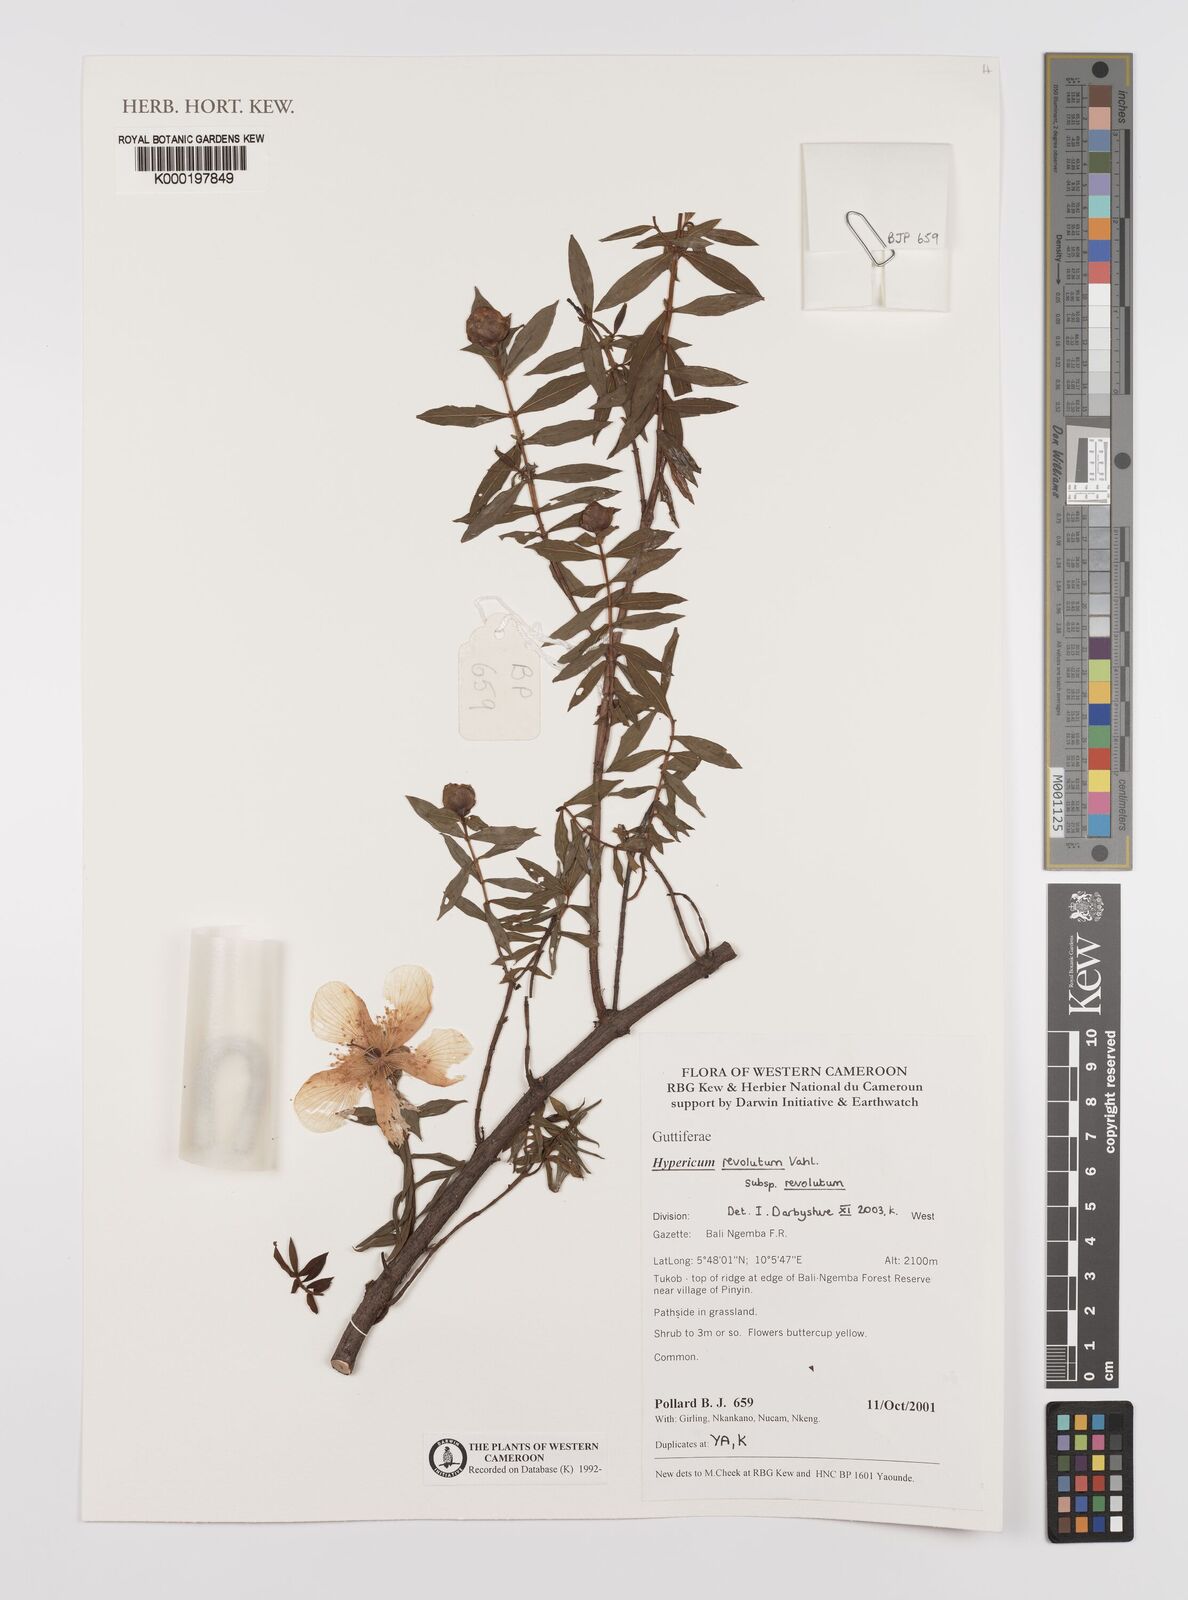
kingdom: Plantae
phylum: Tracheophyta
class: Magnoliopsida
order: Malpighiales
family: Hypericaceae
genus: Hypericum
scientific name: Hypericum revolutum
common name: Curry bush
